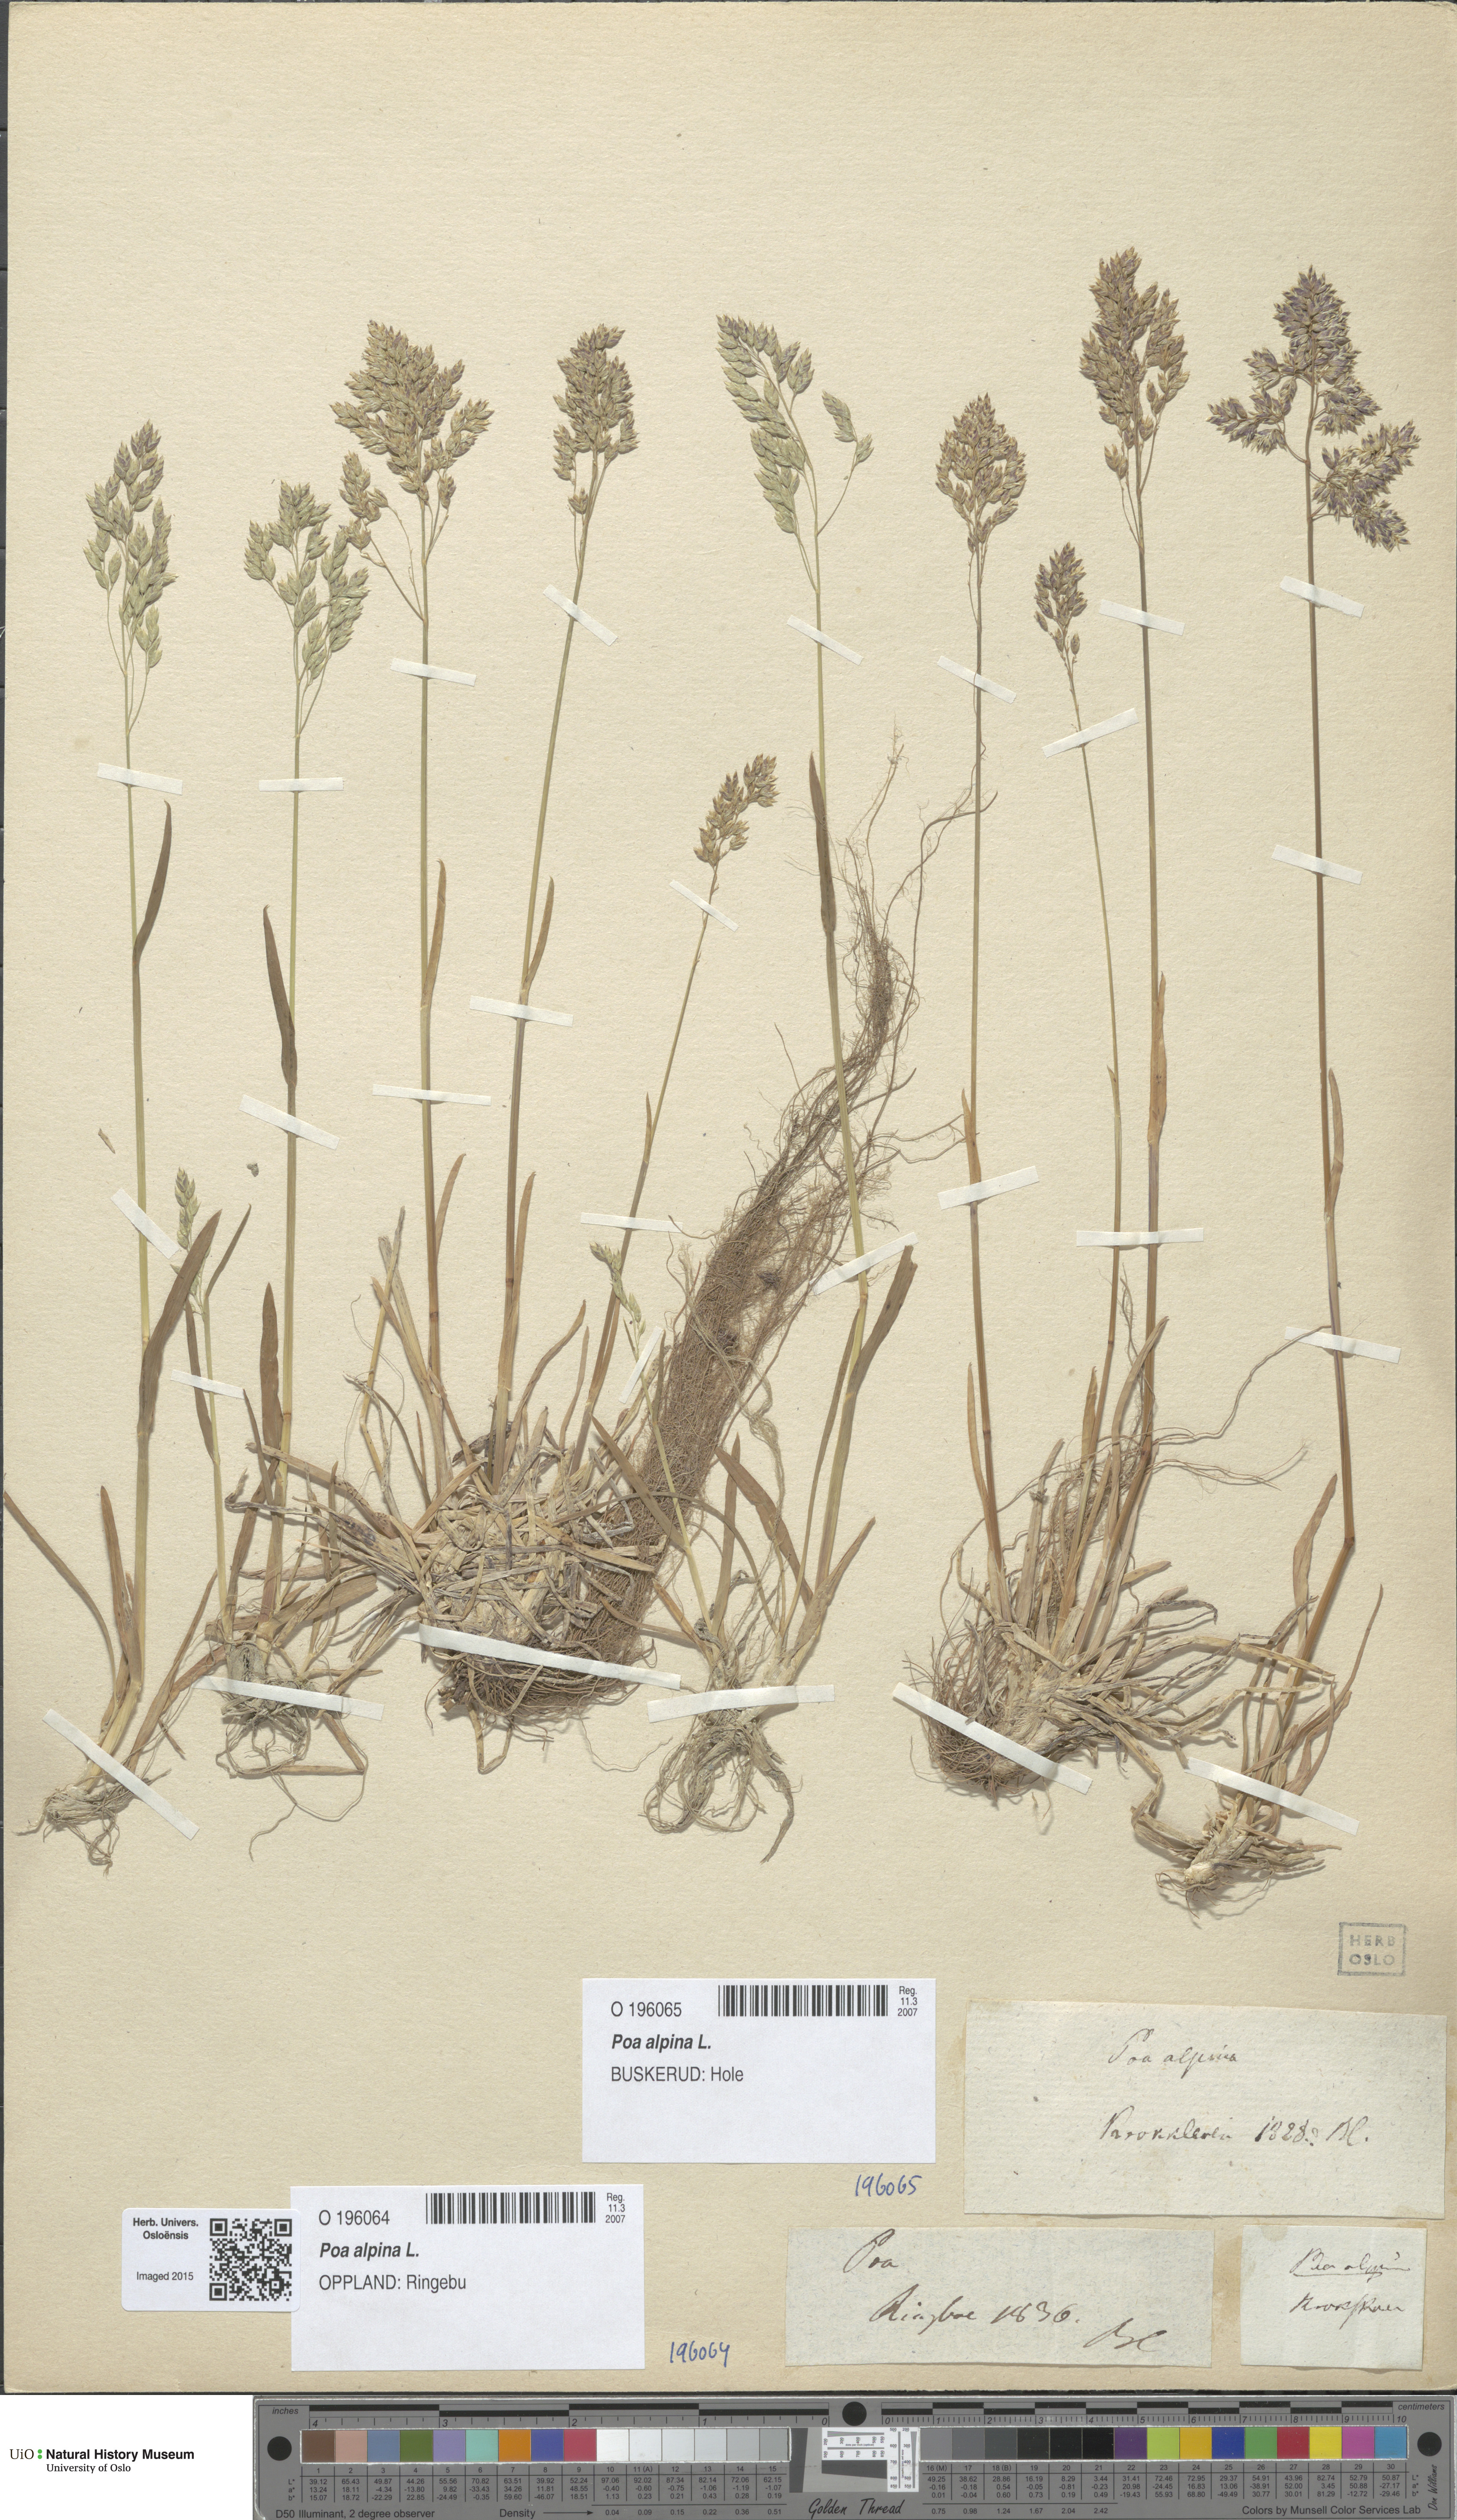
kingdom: Plantae
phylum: Tracheophyta
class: Liliopsida
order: Poales
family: Poaceae
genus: Poa
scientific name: Poa alpina
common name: Alpine bluegrass
